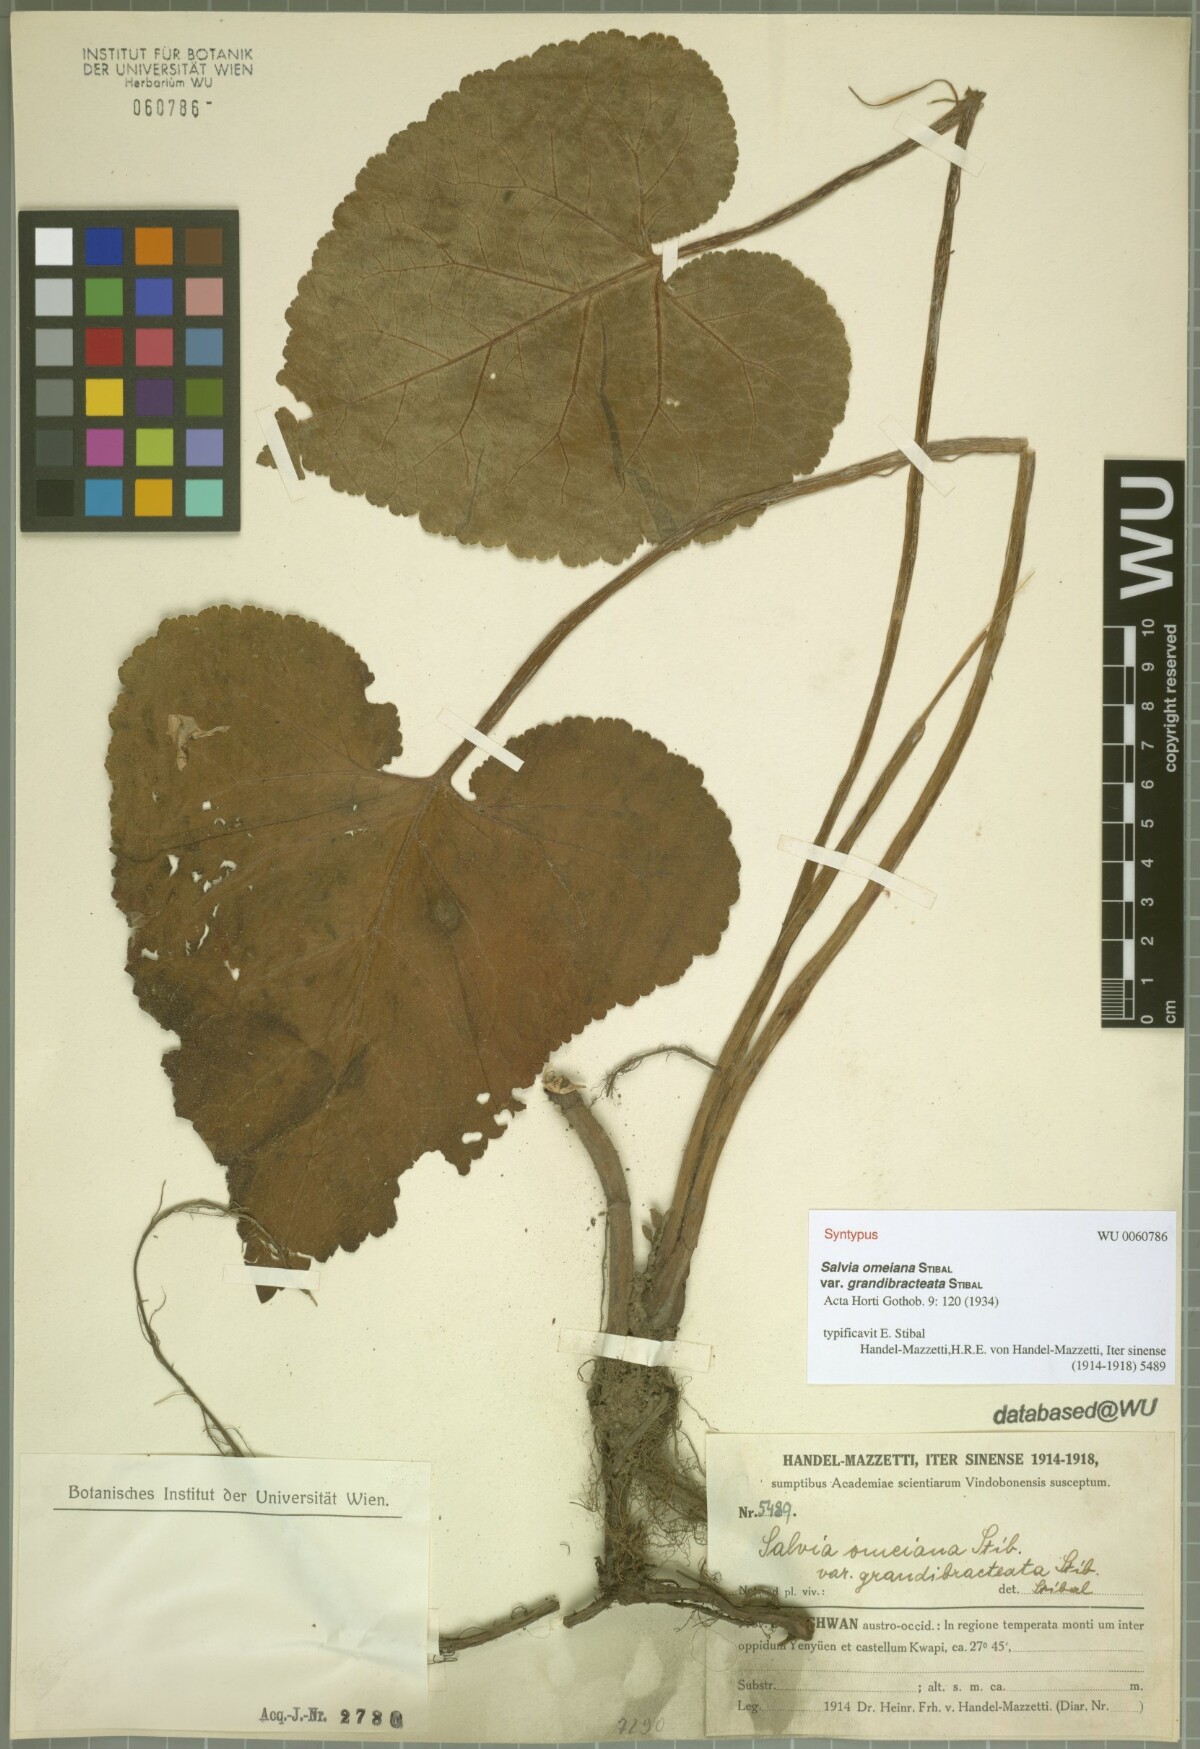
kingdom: Plantae
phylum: Tracheophyta
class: Magnoliopsida
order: Lamiales
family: Lamiaceae
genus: Salvia
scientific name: Salvia omeiana
